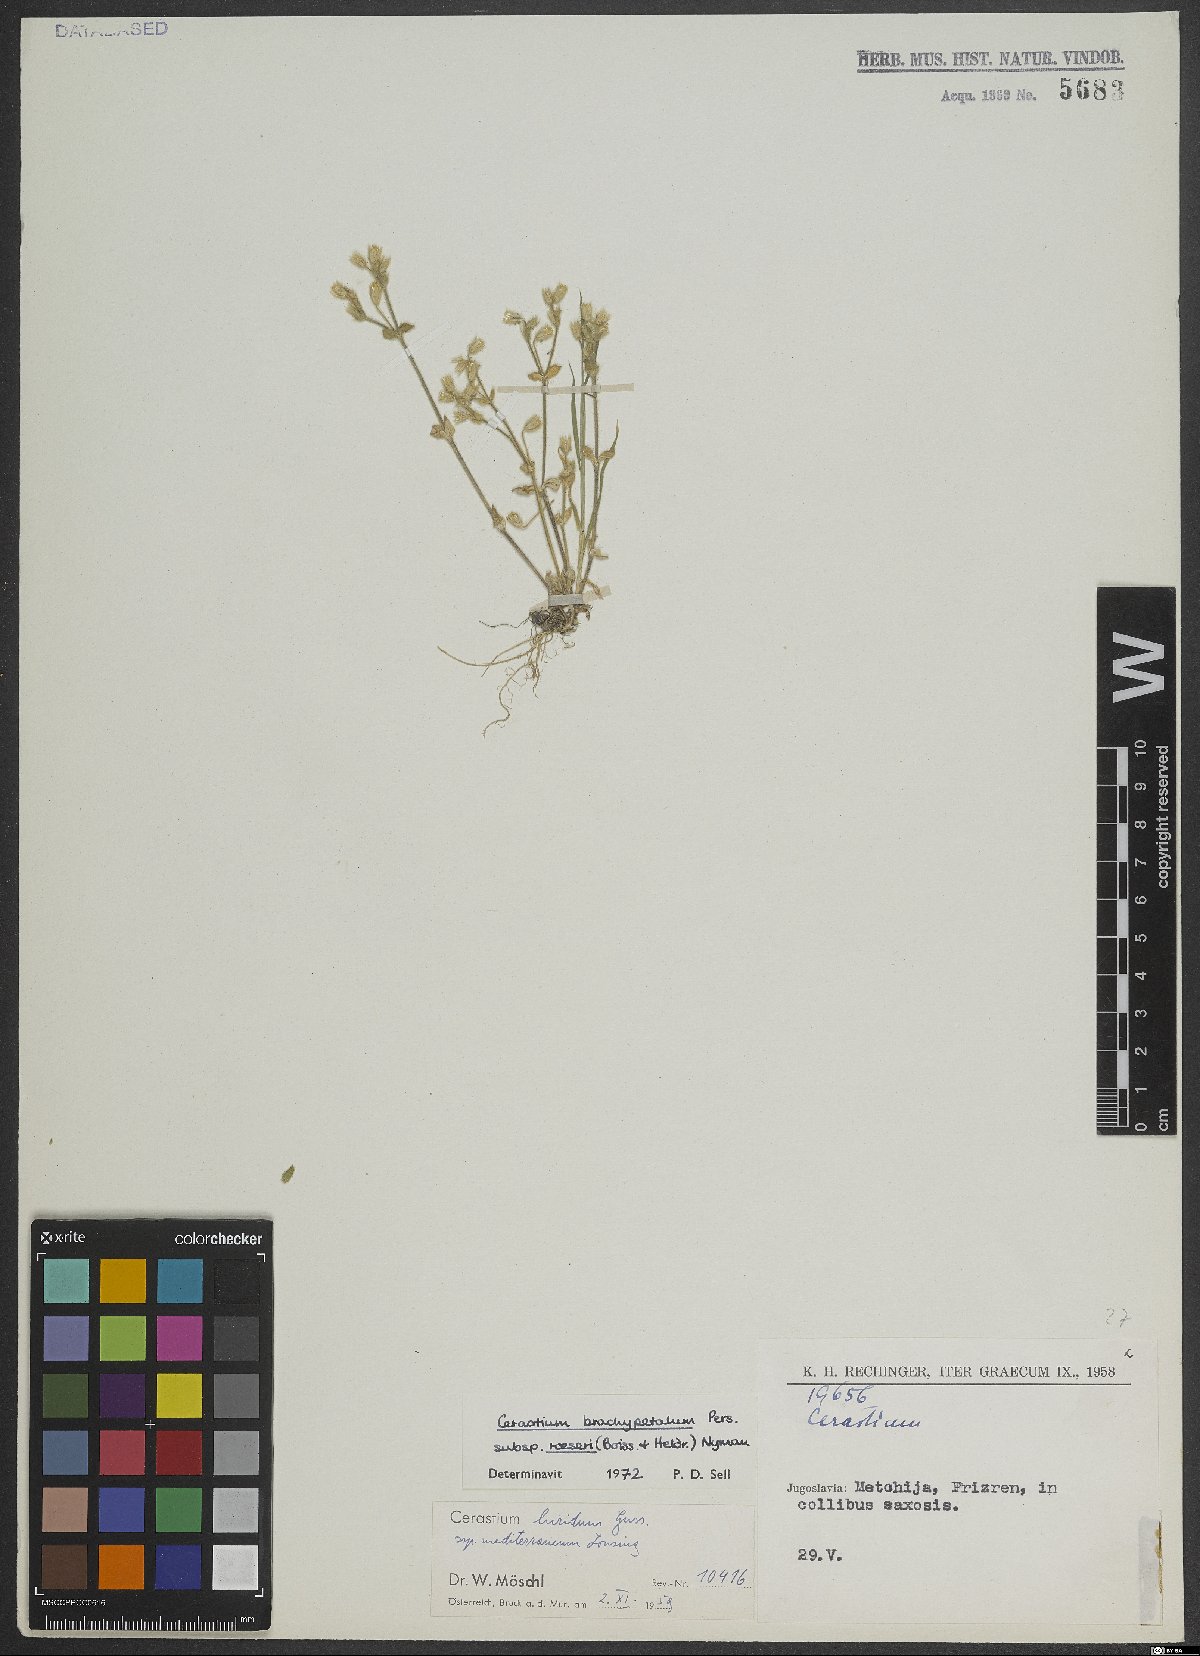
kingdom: Plantae
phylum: Tracheophyta
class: Magnoliopsida
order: Caryophyllales
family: Caryophyllaceae
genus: Cerastium
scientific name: Cerastium brachypetalum
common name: Grey mouse-ear
